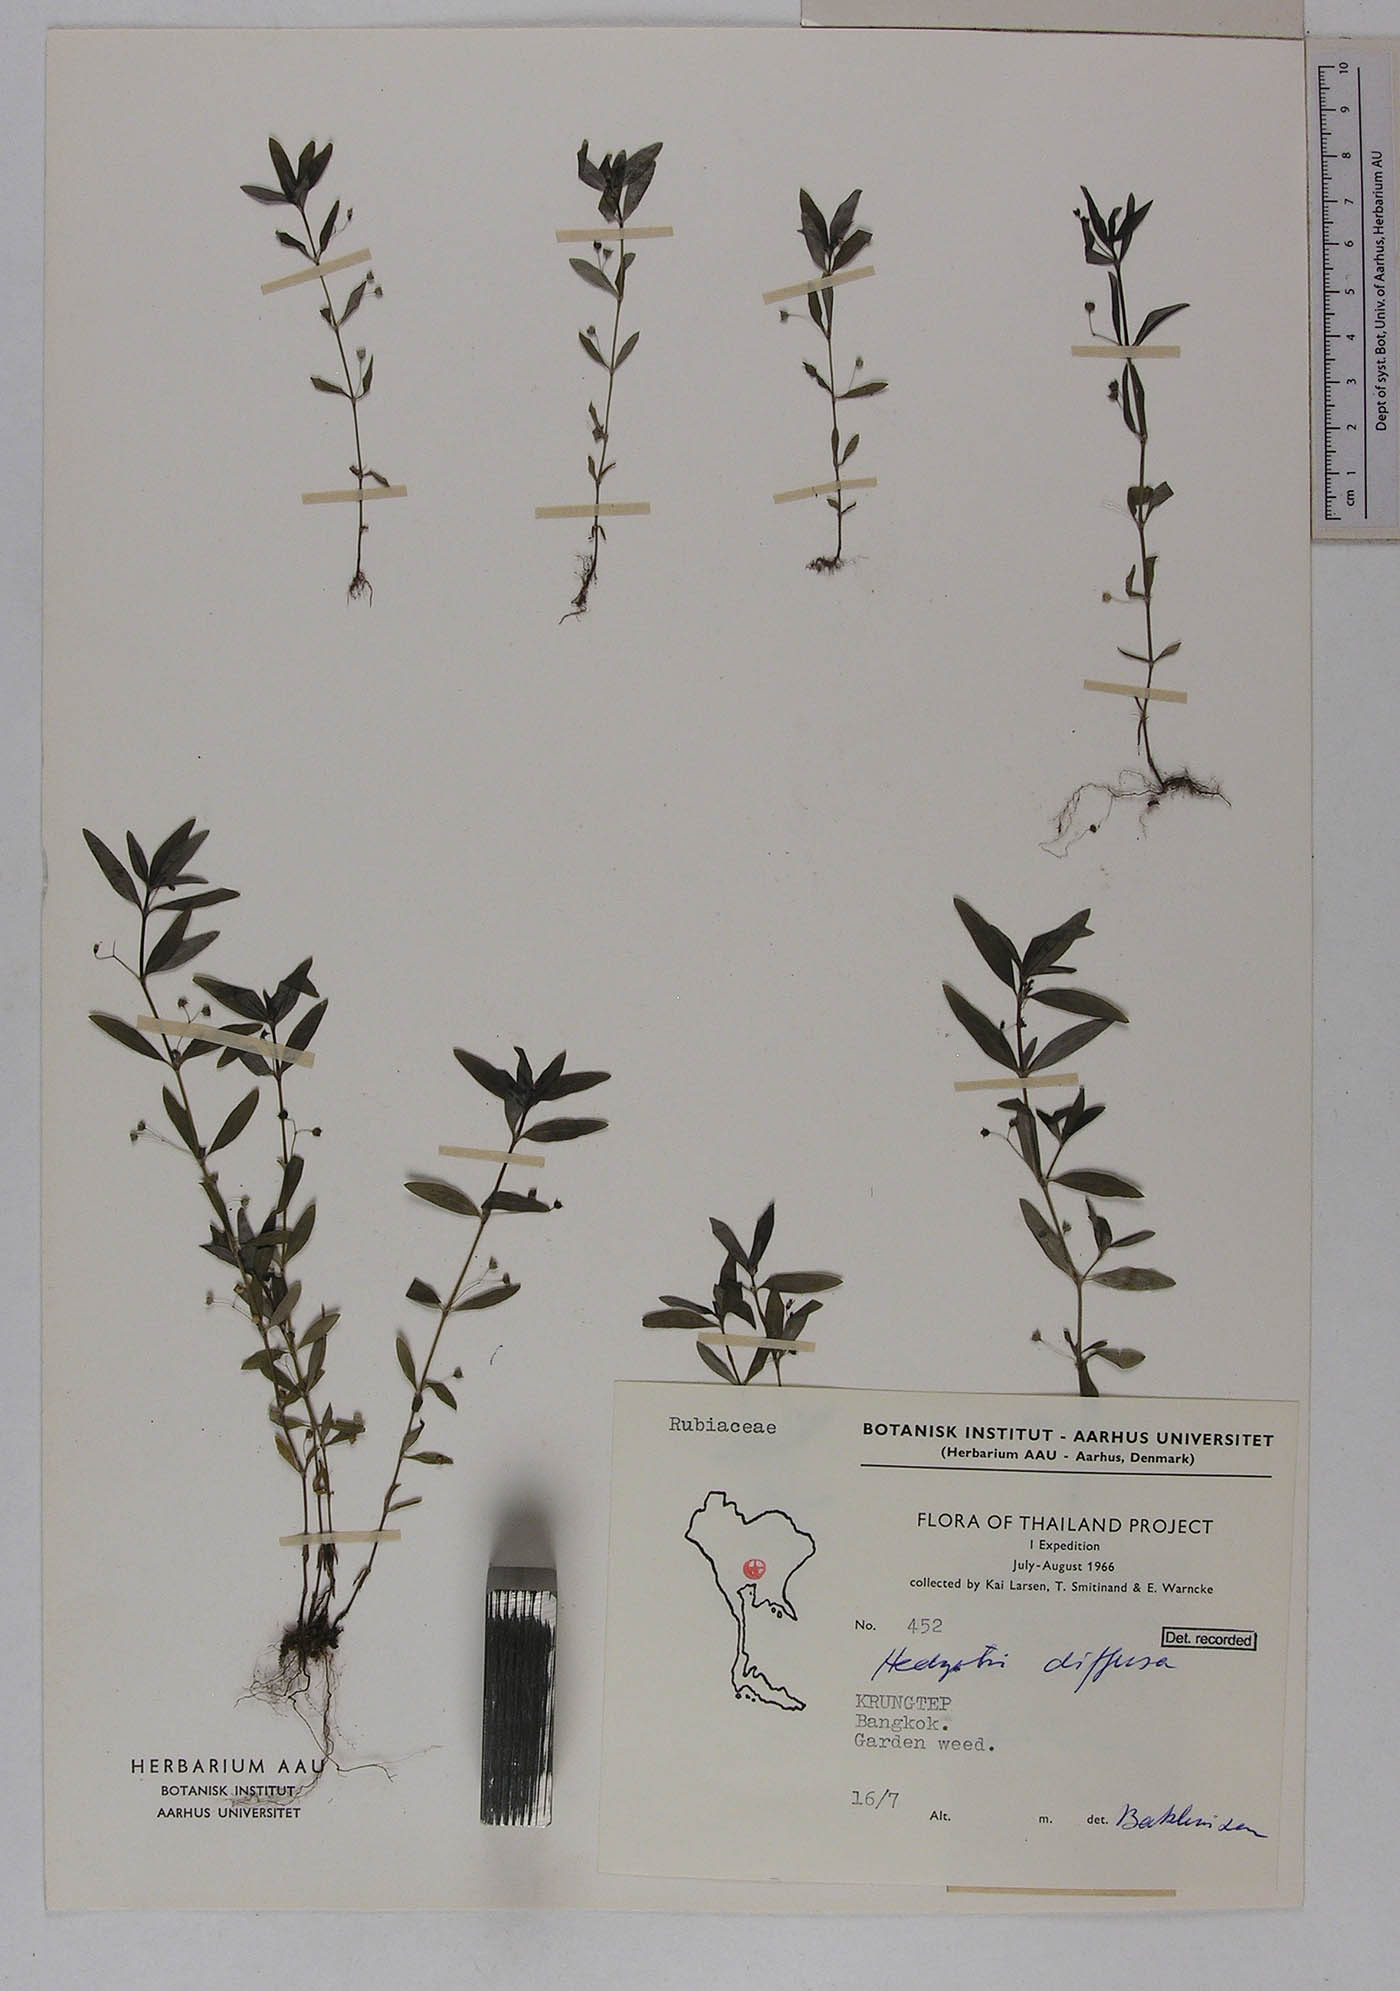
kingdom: Plantae
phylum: Tracheophyta
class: Magnoliopsida
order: Gentianales
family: Rubiaceae
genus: Oldenlandia
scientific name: Oldenlandia corymbosa
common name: Flat-top mille graines
